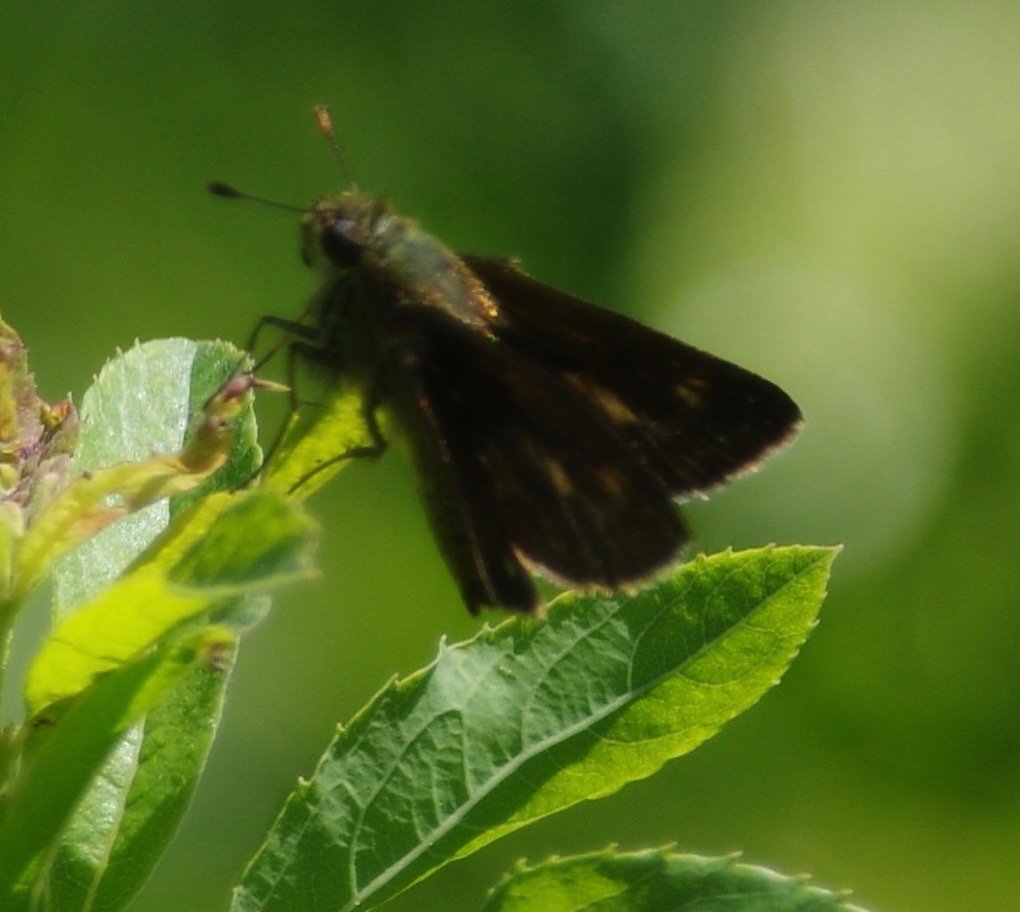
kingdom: Animalia
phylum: Arthropoda
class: Insecta
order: Lepidoptera
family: Hesperiidae
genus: Euphyes
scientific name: Euphyes
